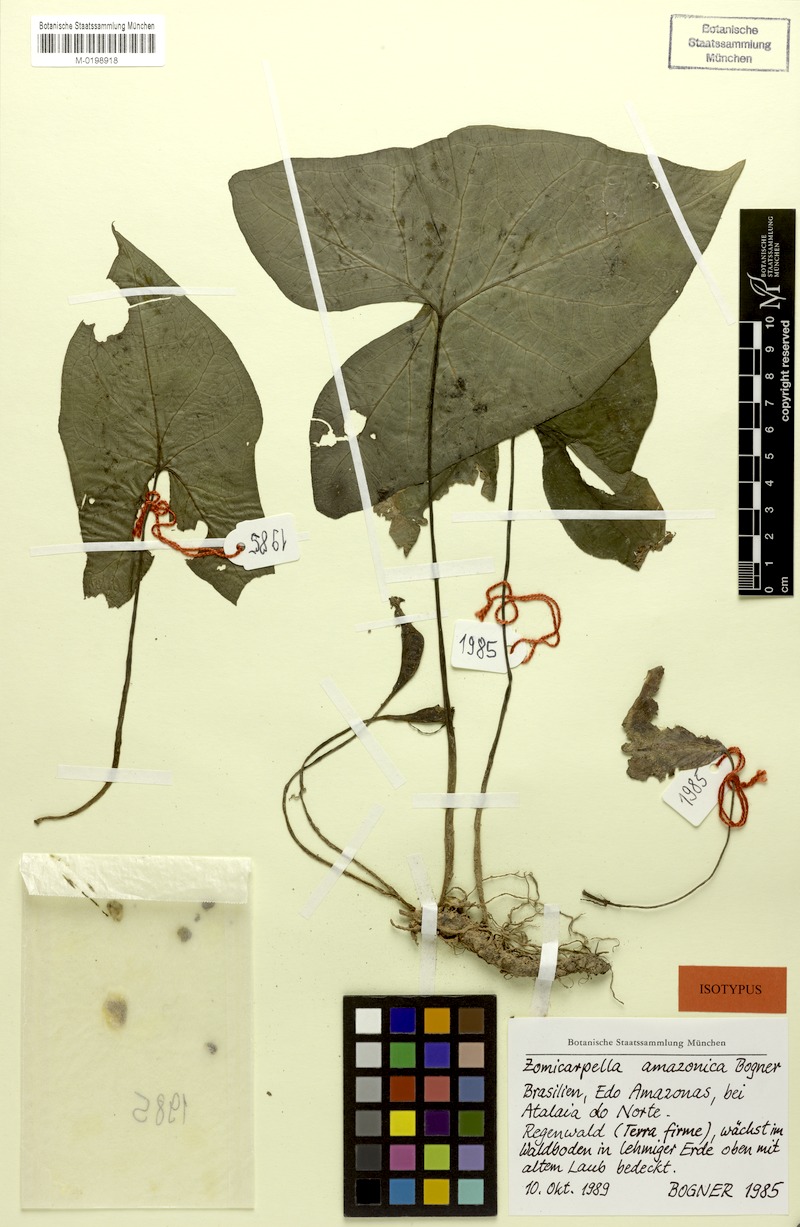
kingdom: Plantae
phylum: Tracheophyta
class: Liliopsida
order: Alismatales
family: Araceae
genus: Zomicarpella
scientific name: Zomicarpella amazonica
